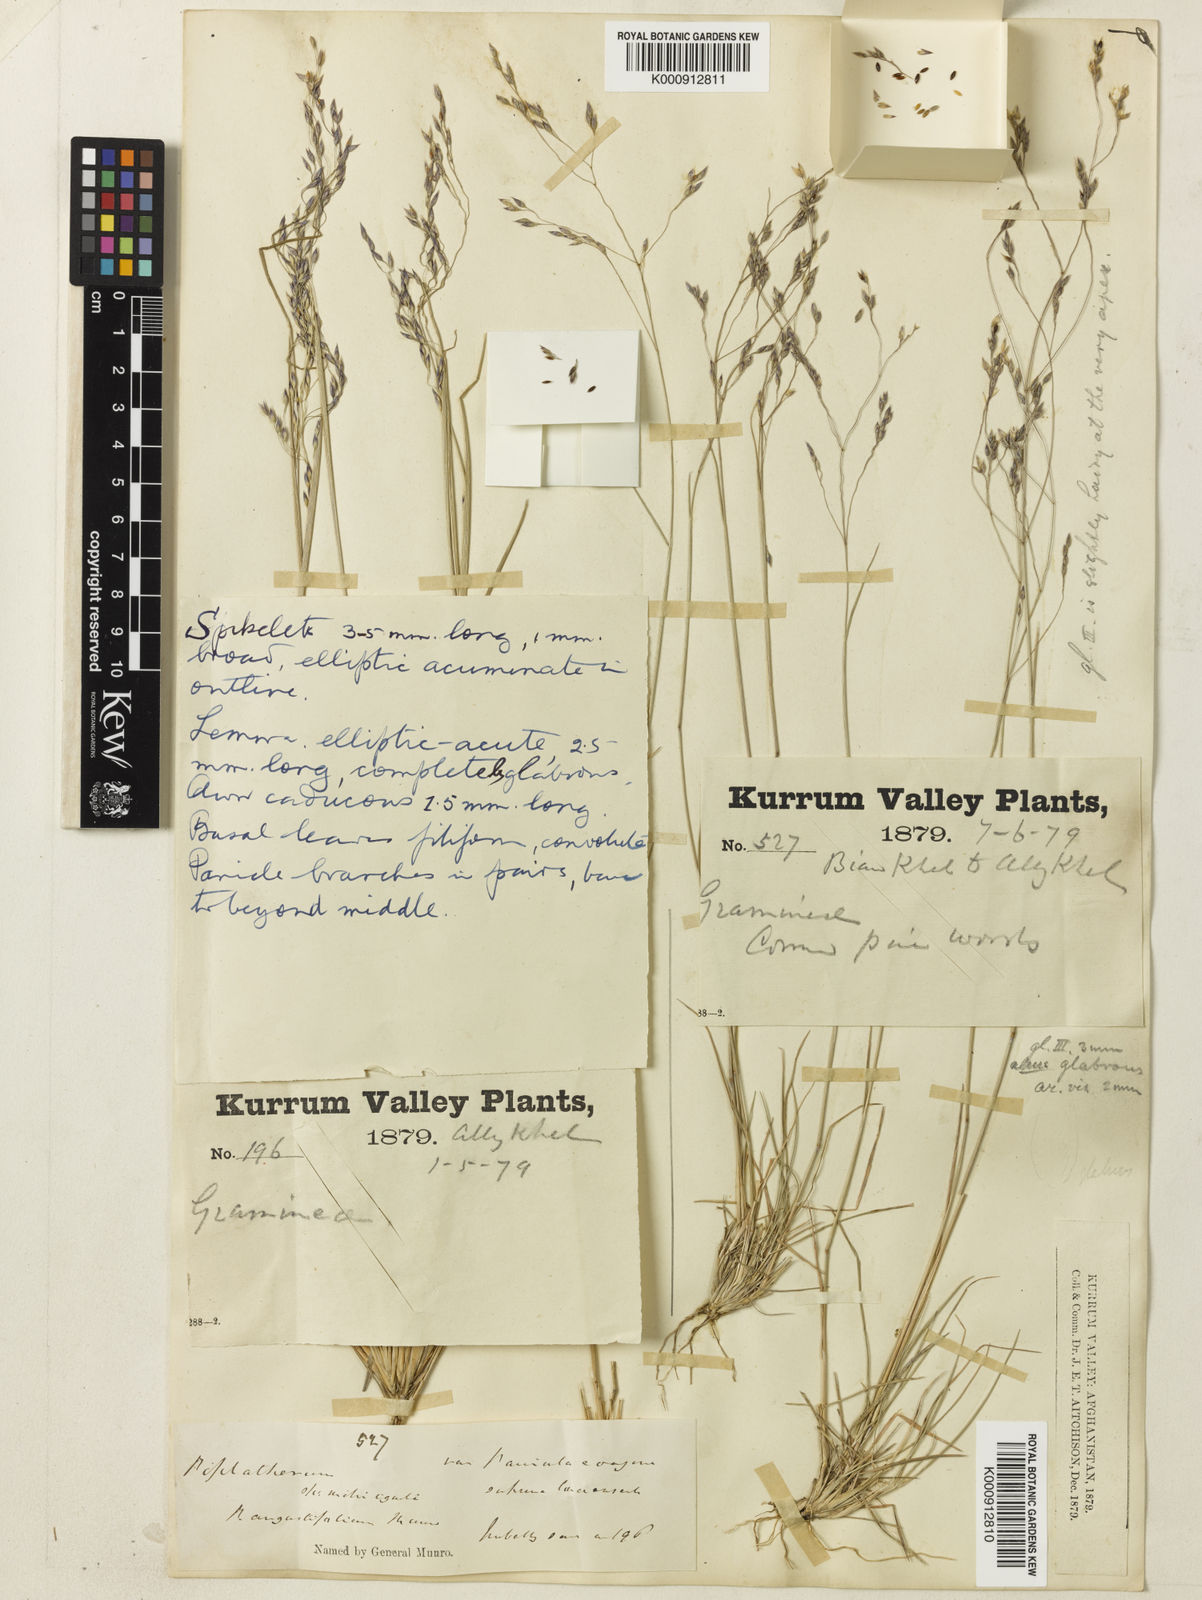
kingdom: Plantae
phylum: Tracheophyta
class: Liliopsida
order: Poales
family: Poaceae
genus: Piptatherum
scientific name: Piptatherum angustifolium
